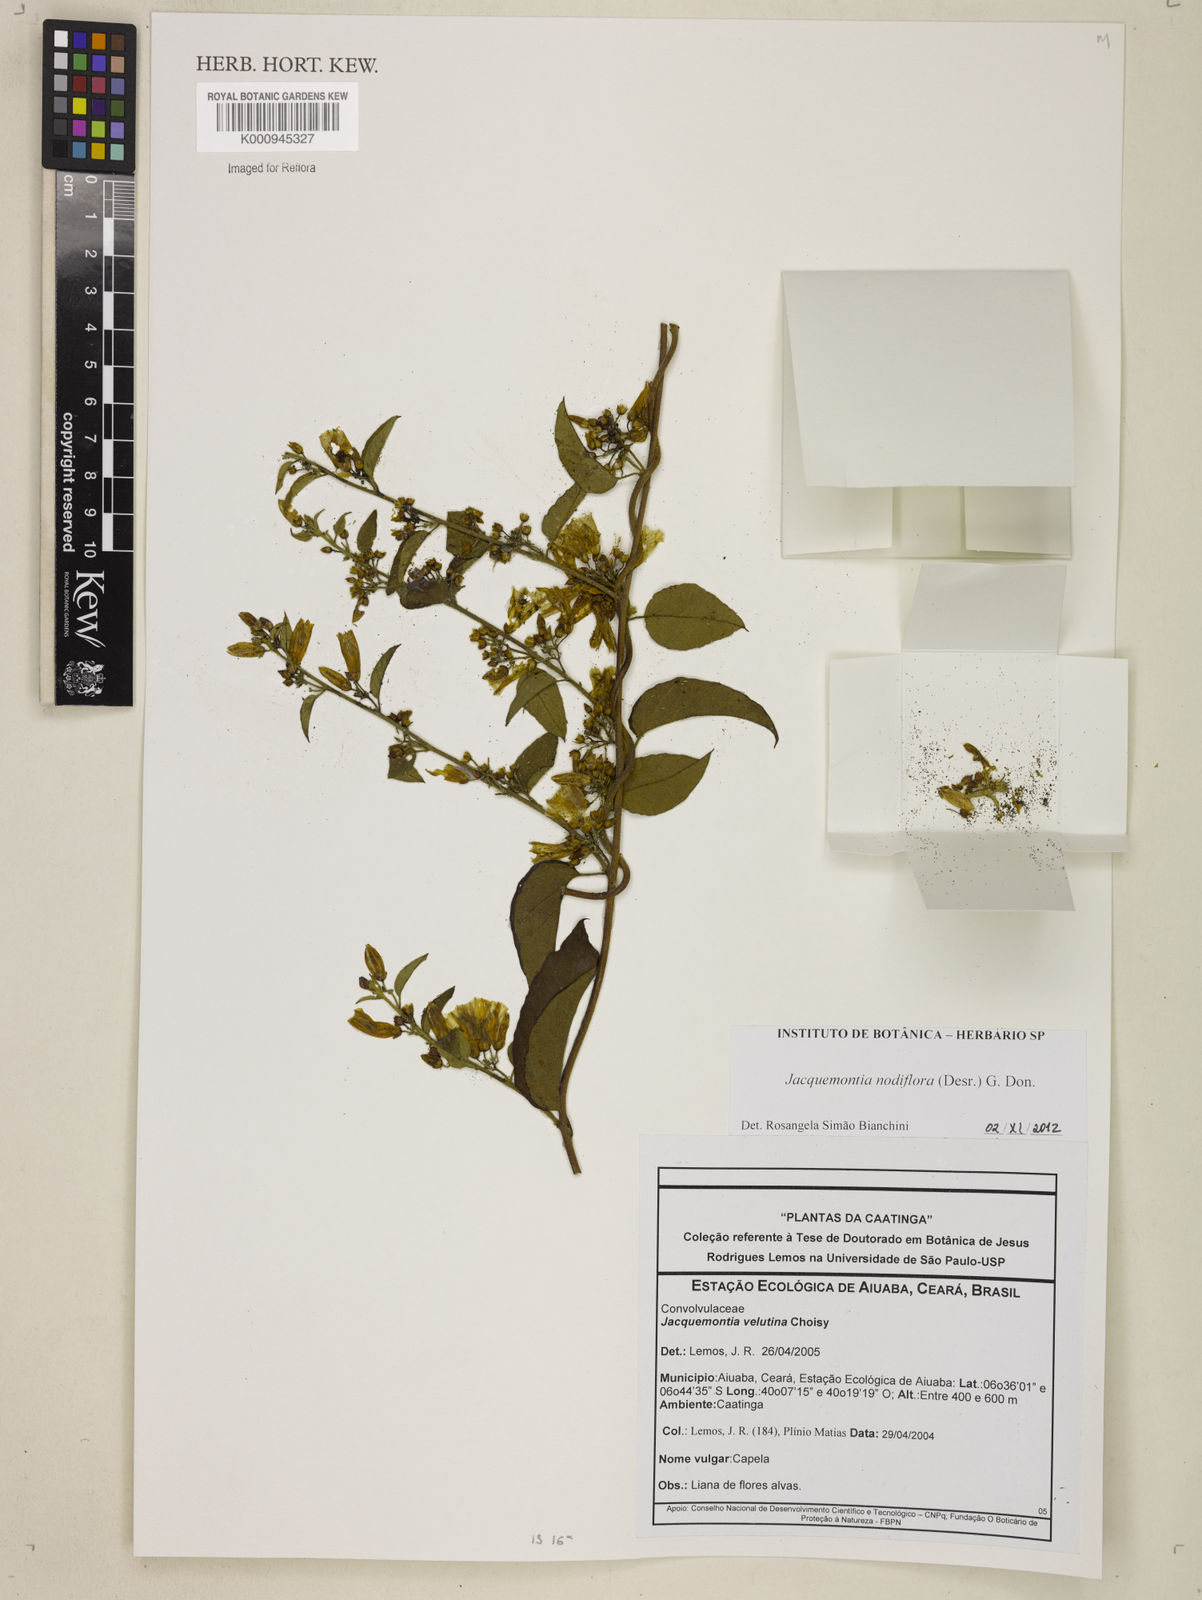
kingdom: Plantae
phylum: Tracheophyta
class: Magnoliopsida
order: Solanales
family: Convolvulaceae
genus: Jacquemontia
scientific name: Jacquemontia nodiflora
